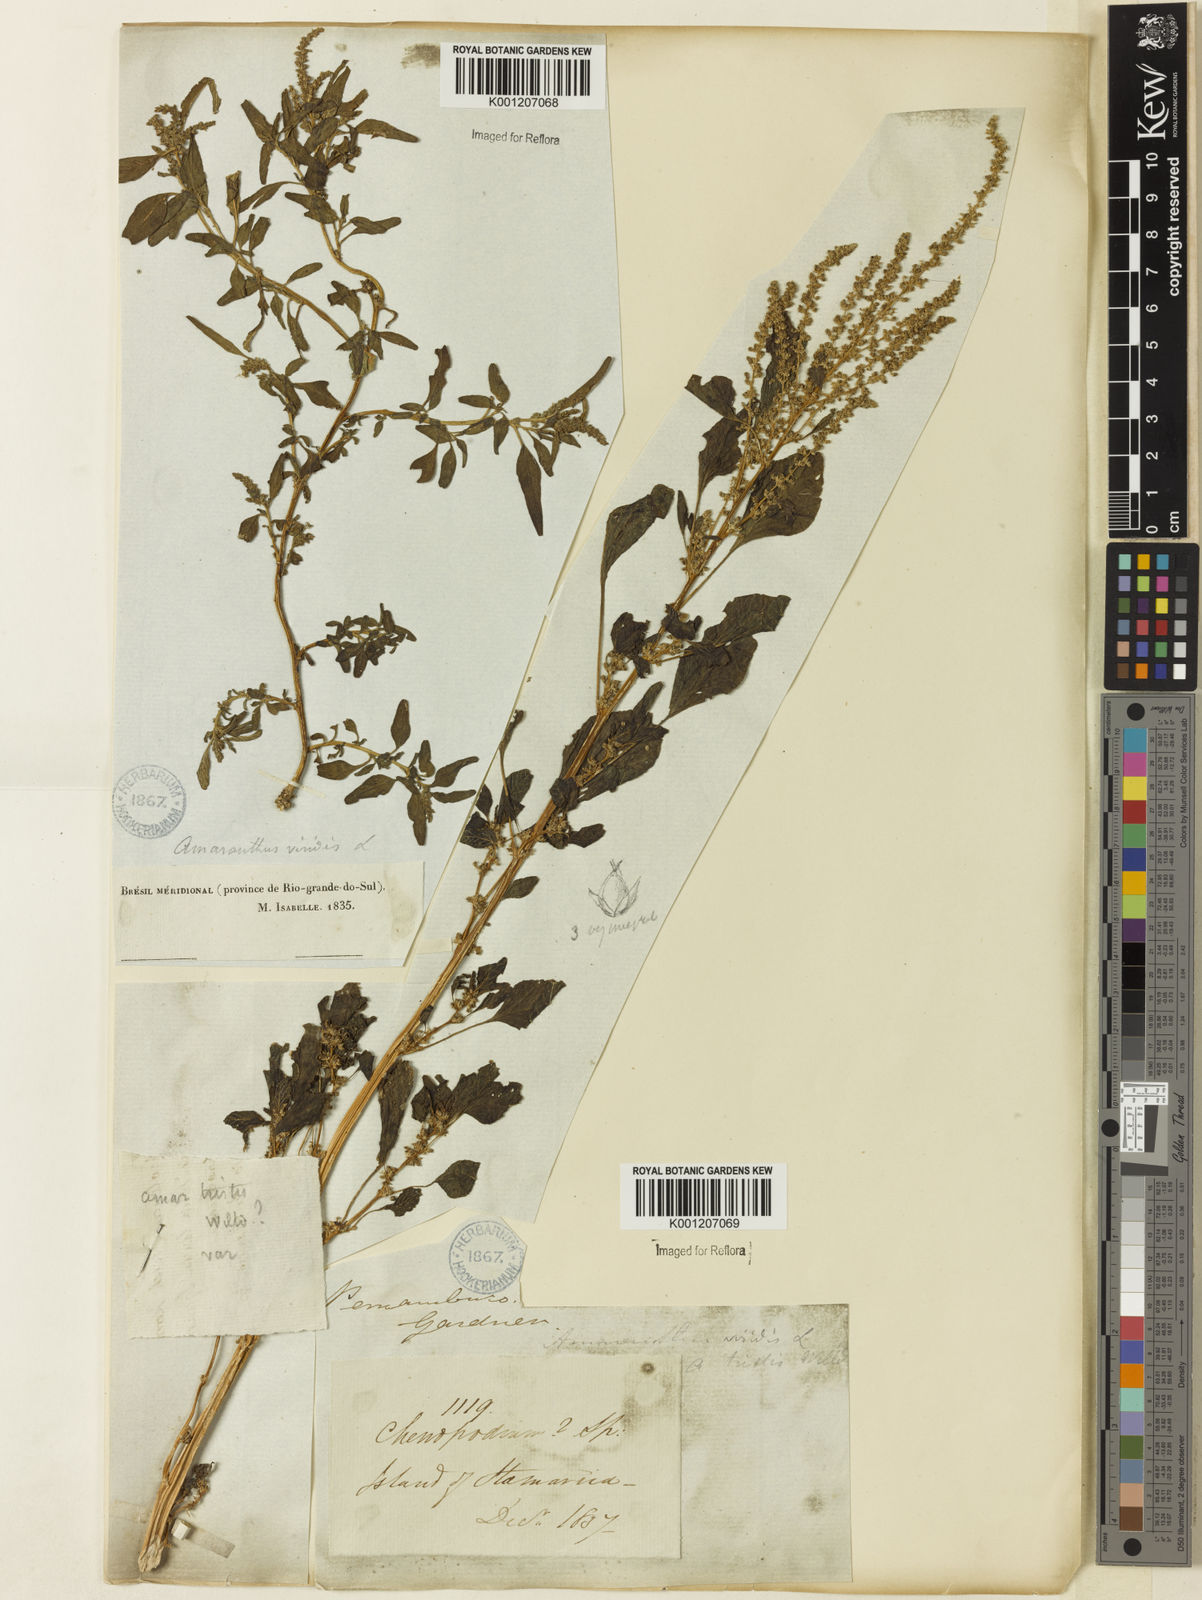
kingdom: Plantae
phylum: Tracheophyta
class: Magnoliopsida
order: Caryophyllales
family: Amaranthaceae
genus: Amaranthus
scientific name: Amaranthus blitum
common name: Purple amaranth
